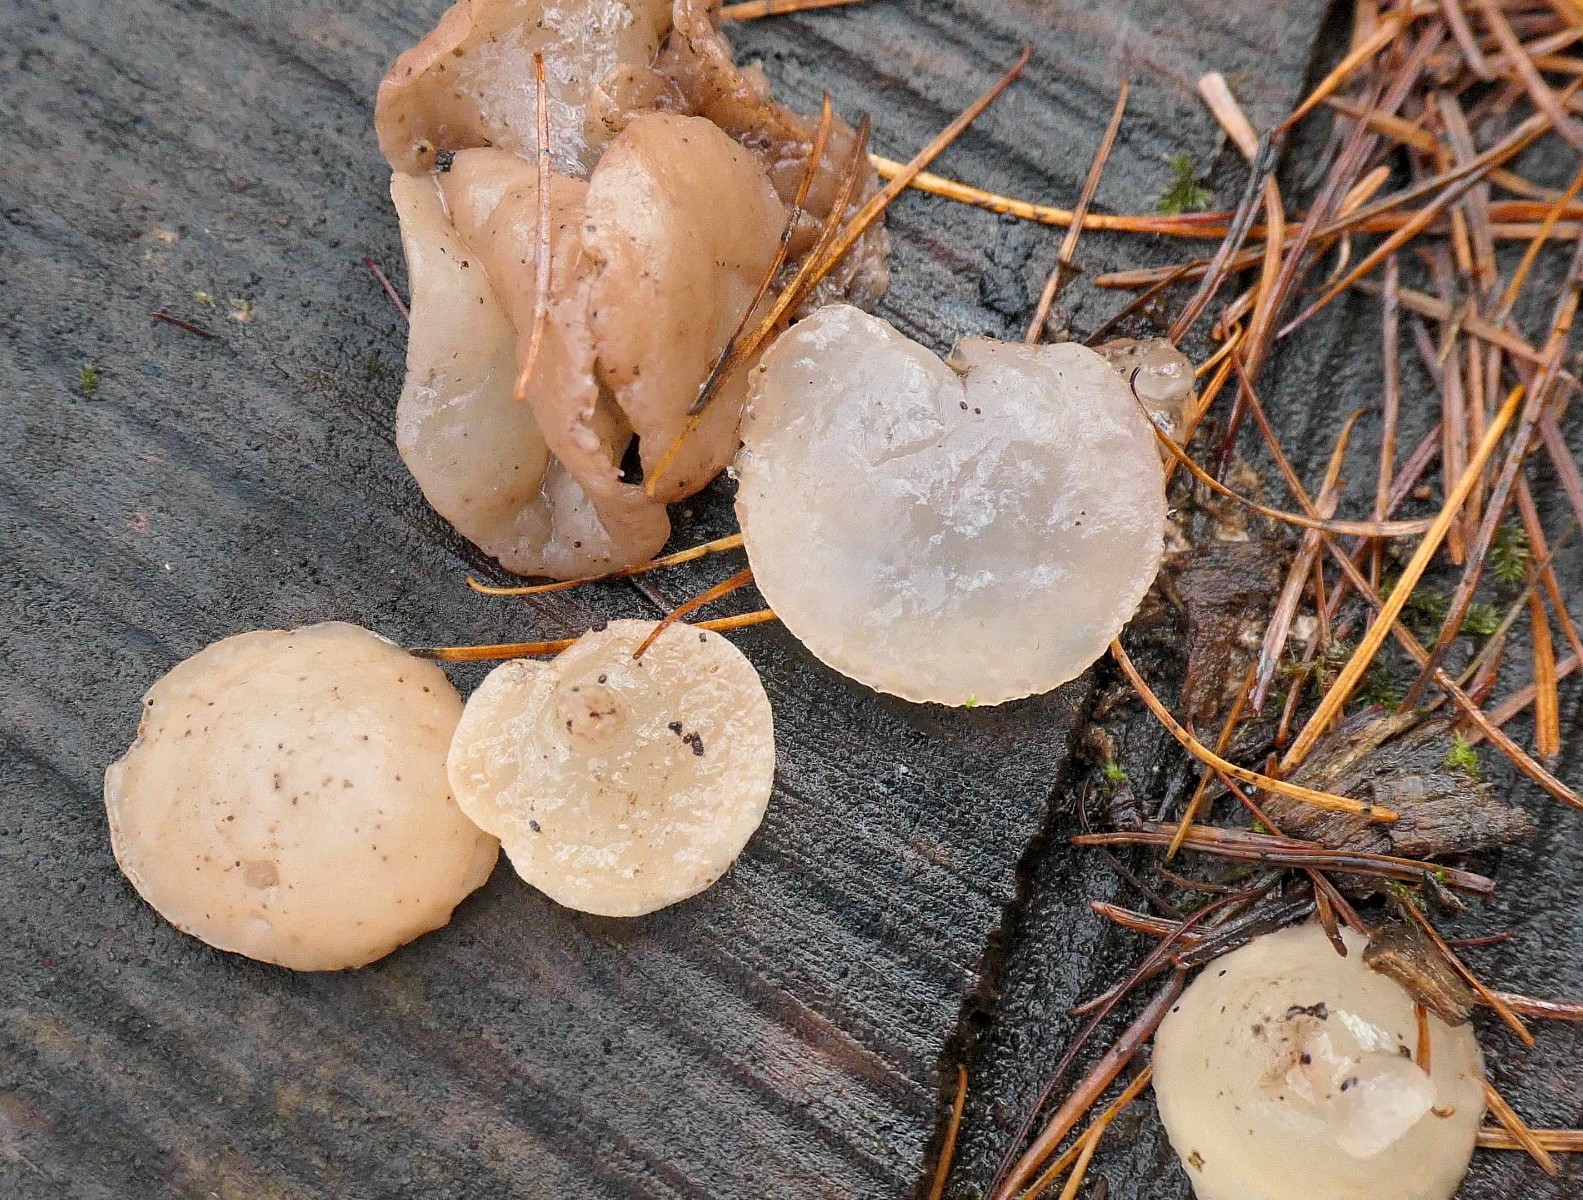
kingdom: Fungi
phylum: Ascomycota
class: Leotiomycetes
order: Helotiales
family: Gelatinodiscaceae
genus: Neobulgaria
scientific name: Neobulgaria pura
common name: bleg bævreskive
